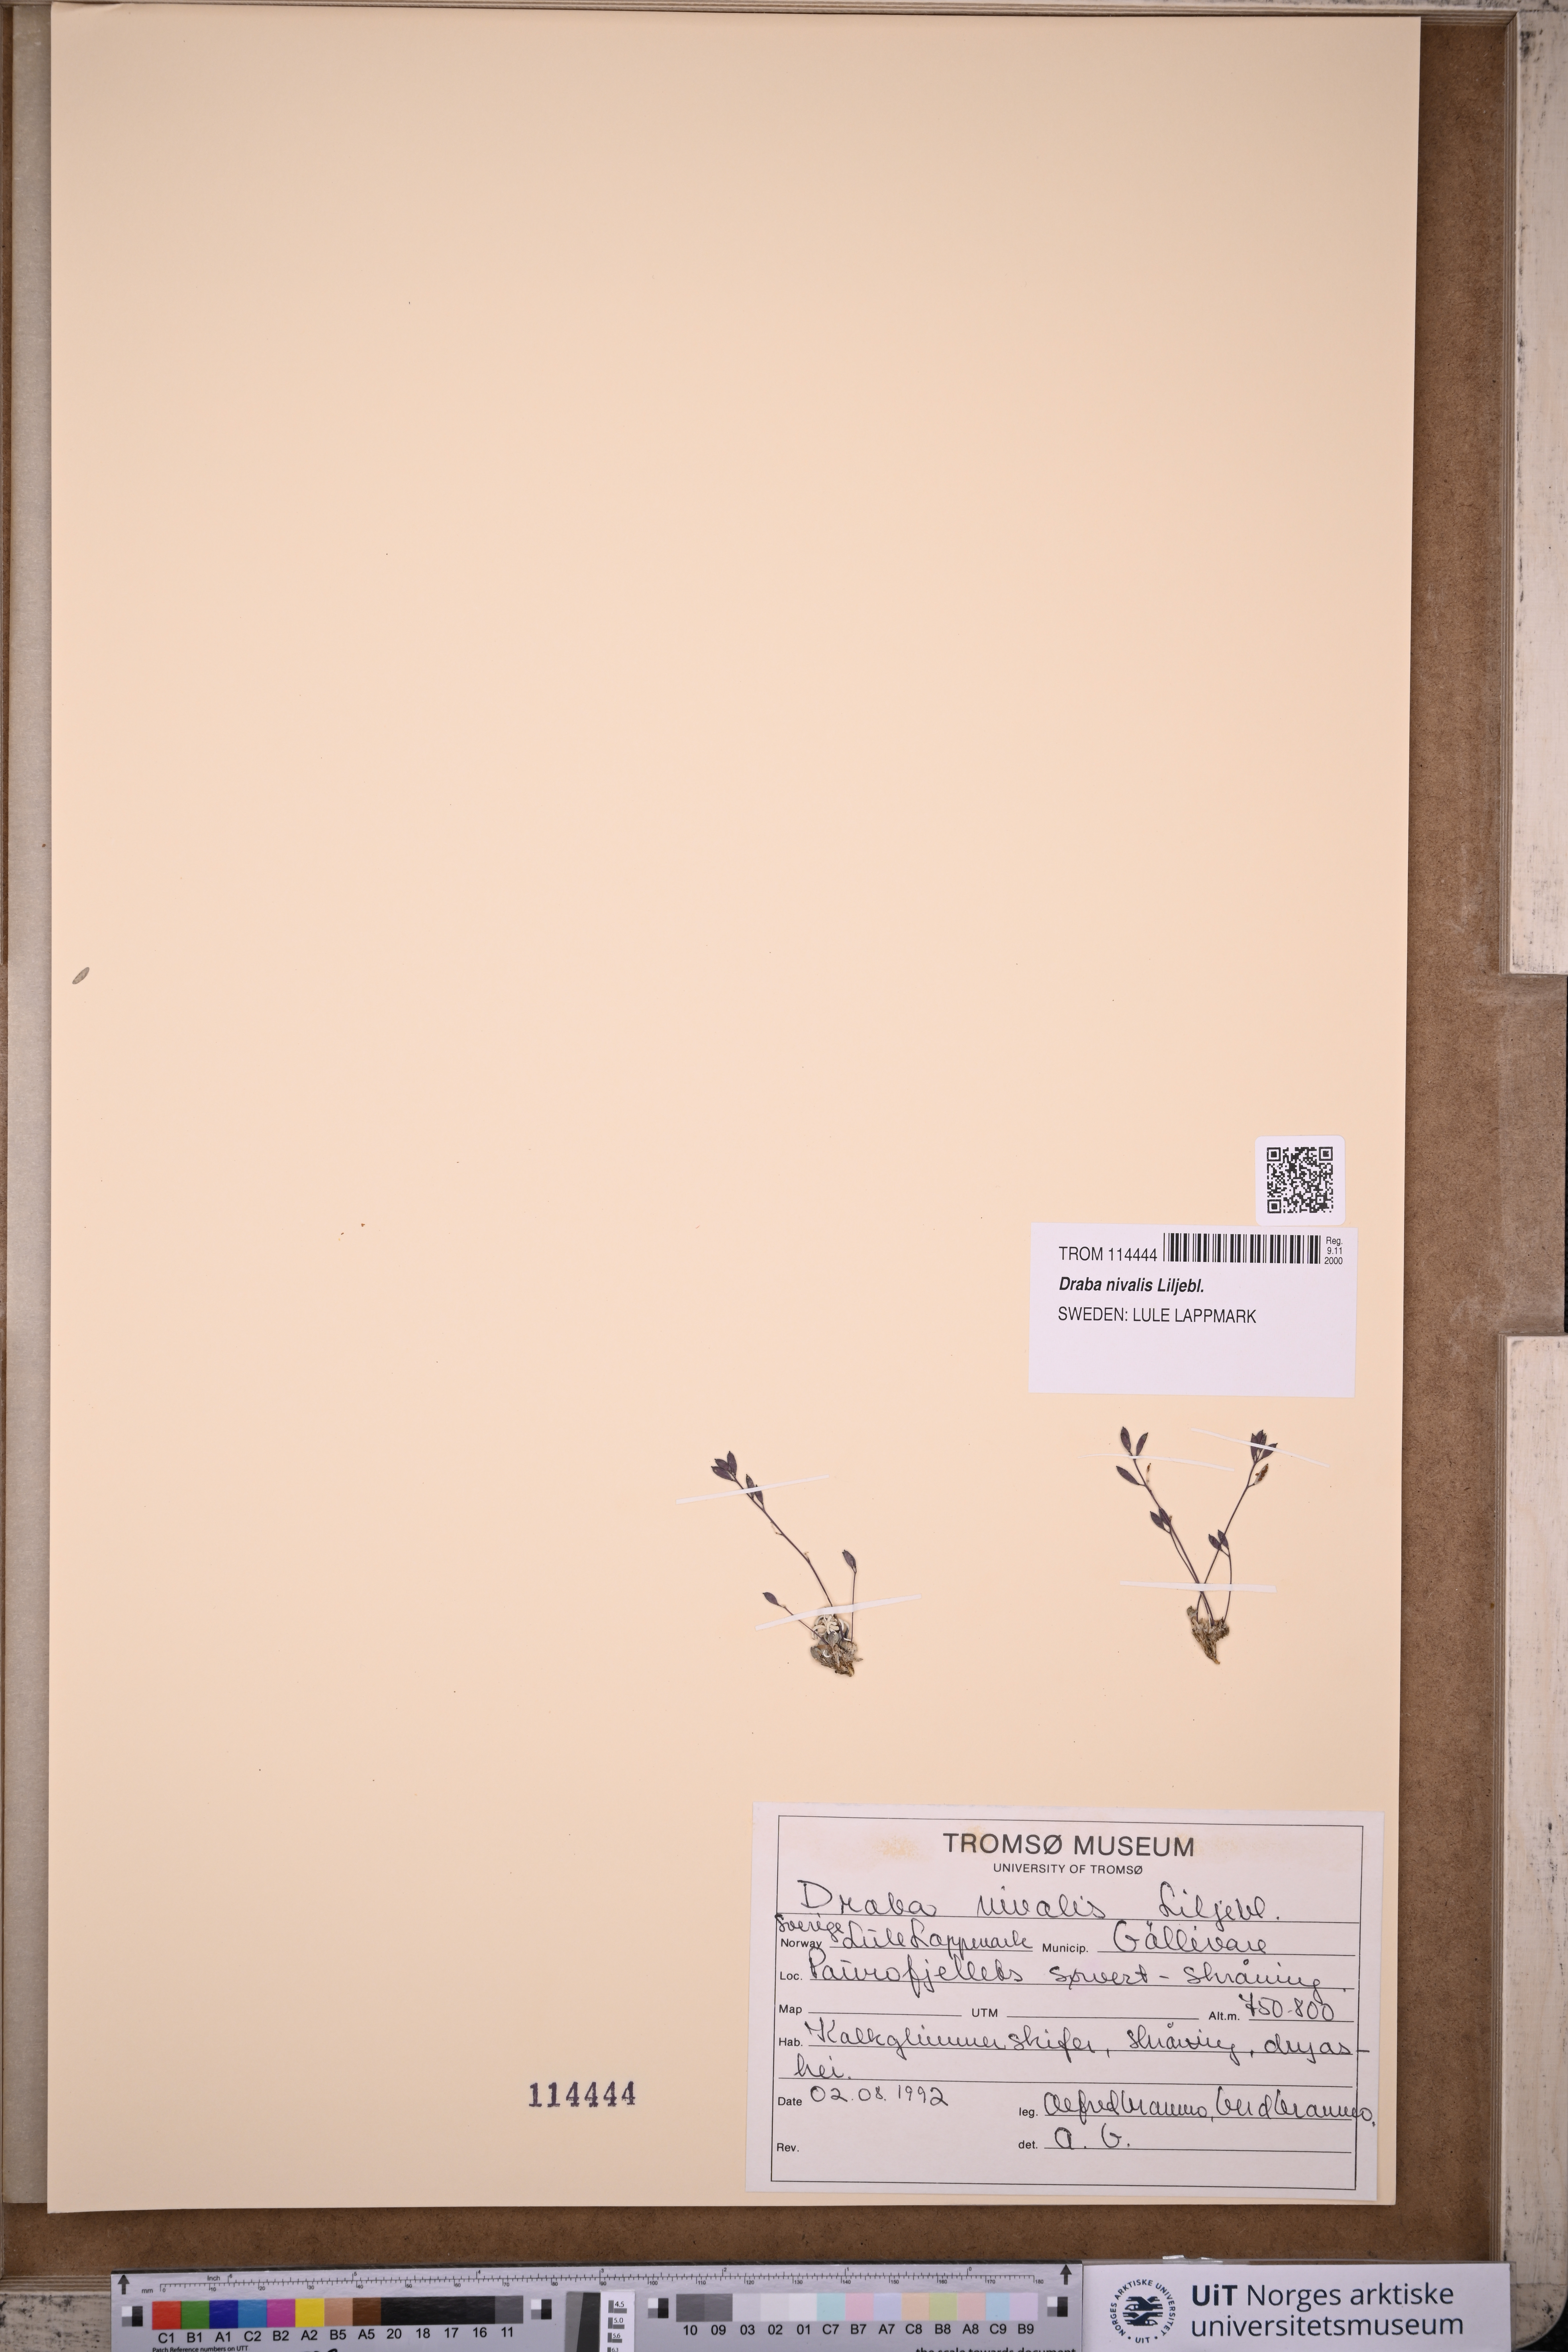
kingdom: Plantae
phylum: Tracheophyta
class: Magnoliopsida
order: Brassicales
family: Brassicaceae
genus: Draba
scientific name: Draba nivalis
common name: Snow draba
